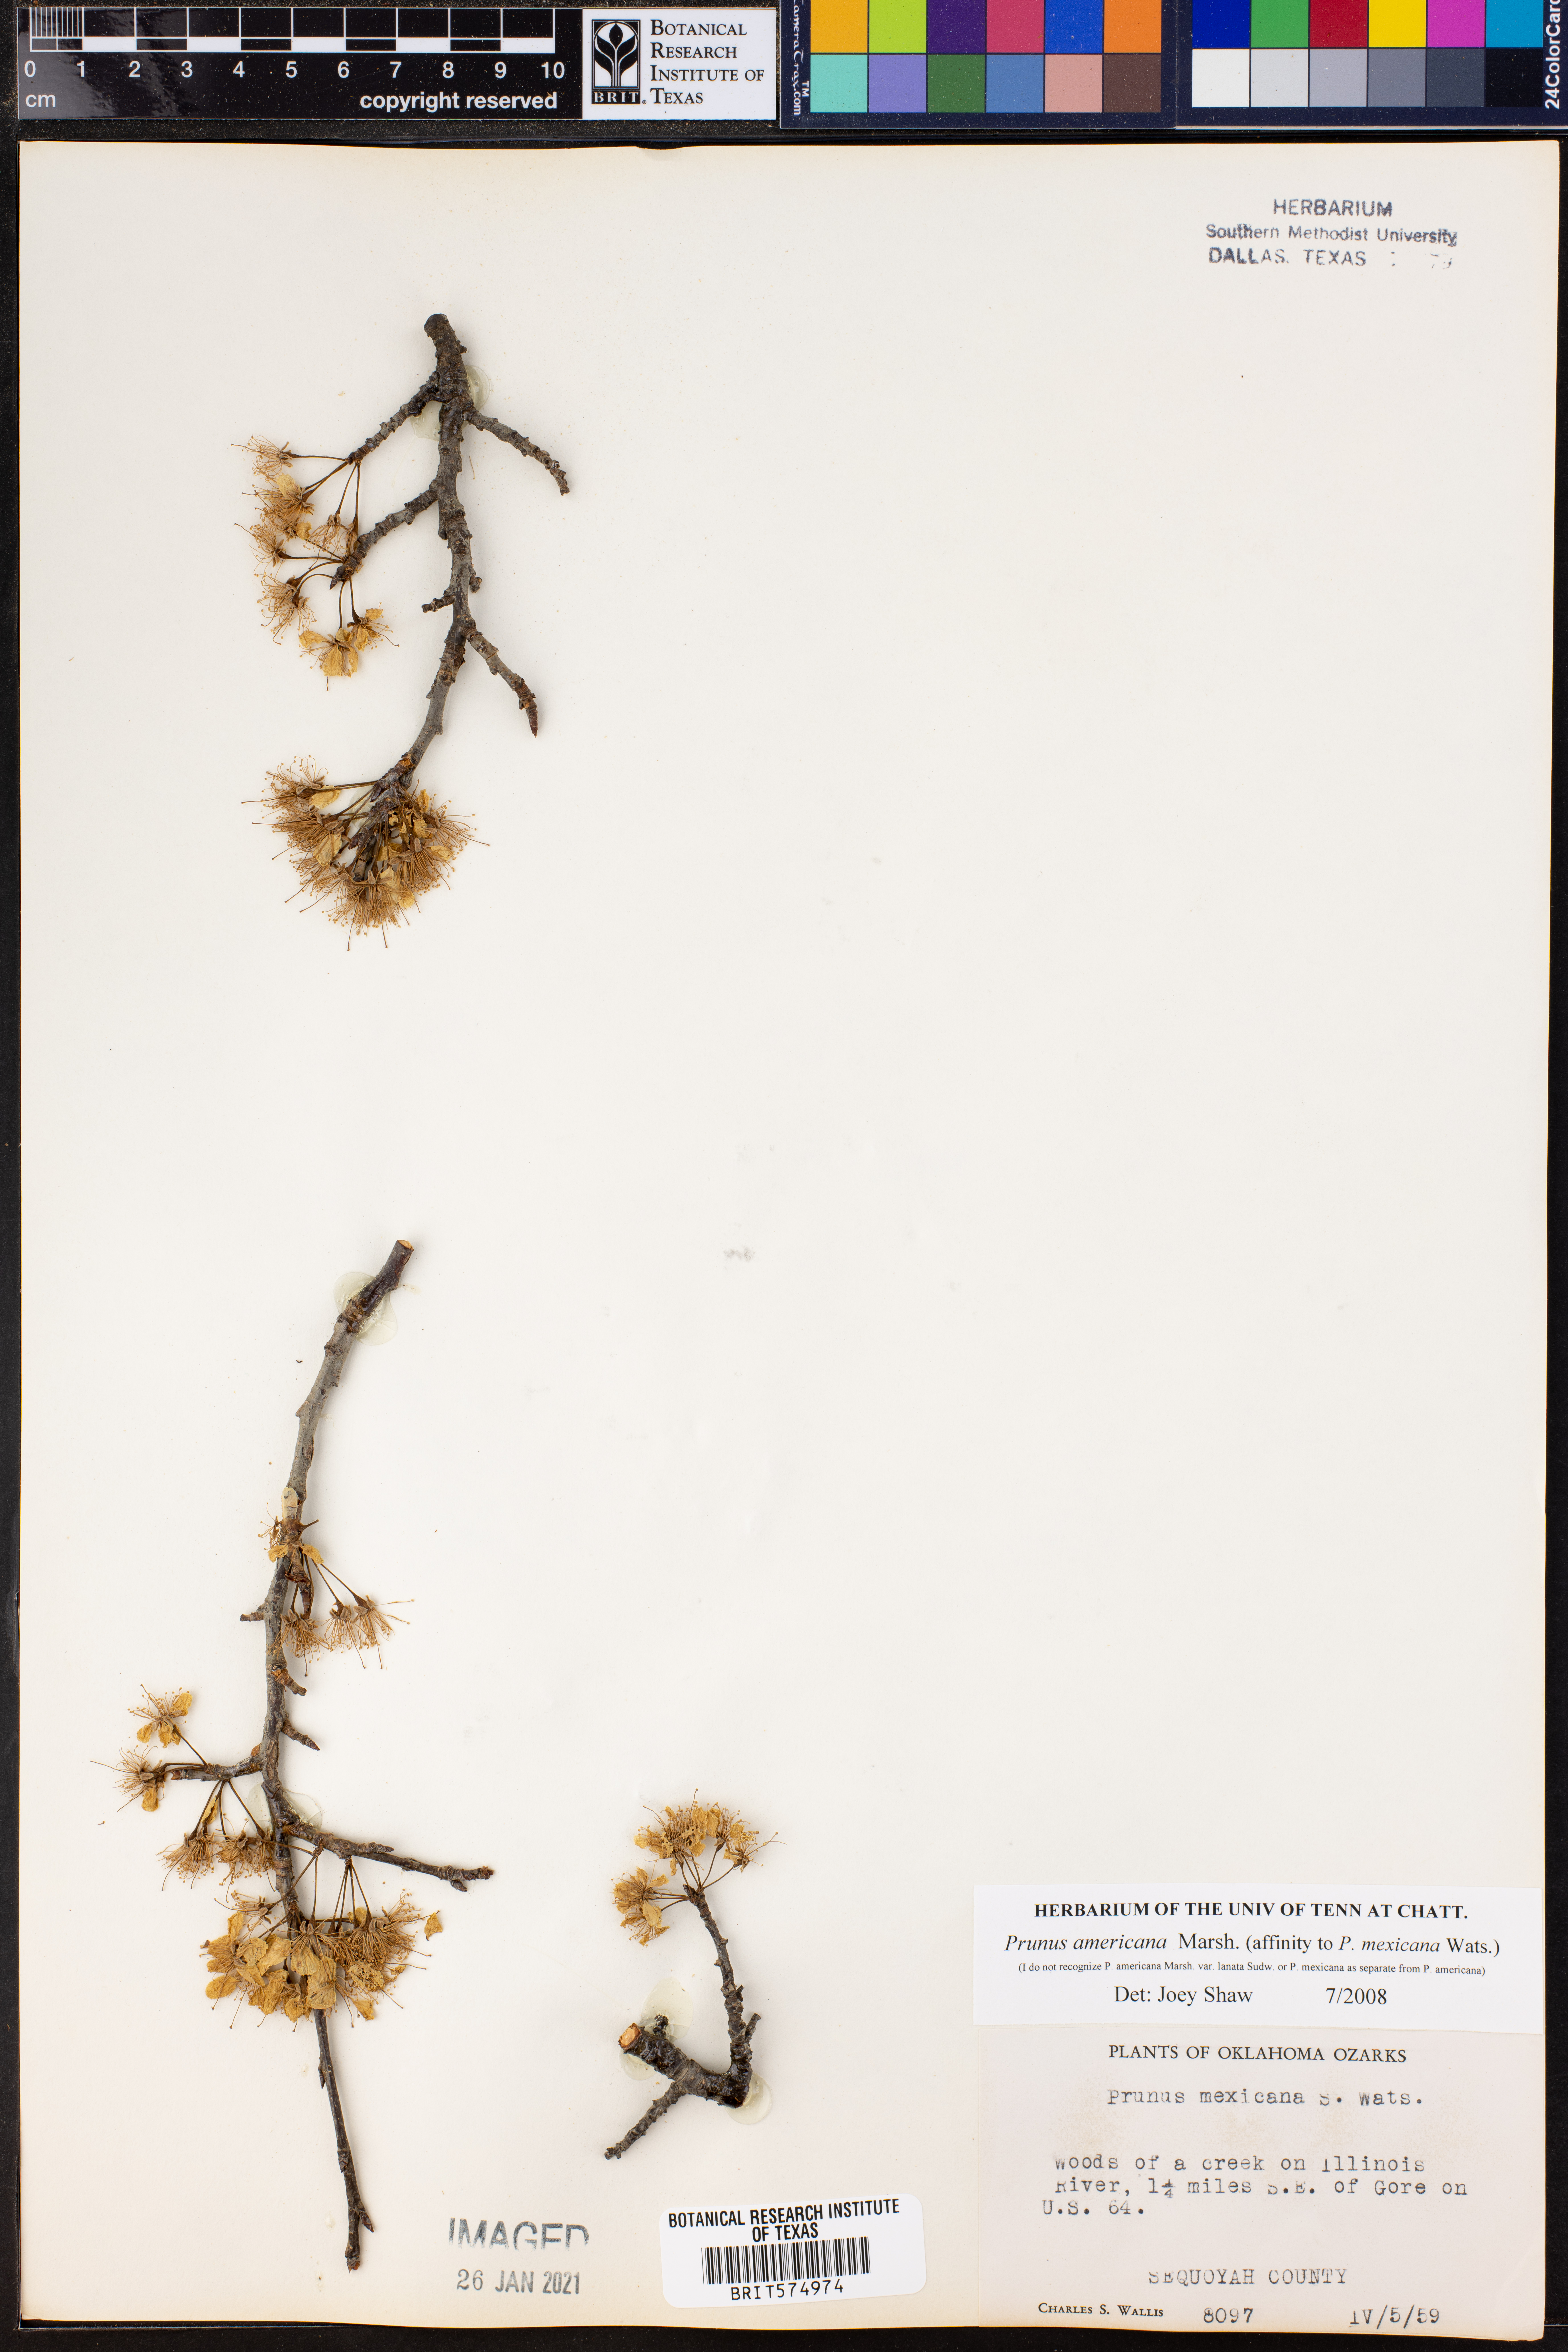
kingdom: Plantae
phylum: Tracheophyta
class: Magnoliopsida
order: Rosales
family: Rosaceae
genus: Prunus
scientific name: Prunus americana
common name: American plum
